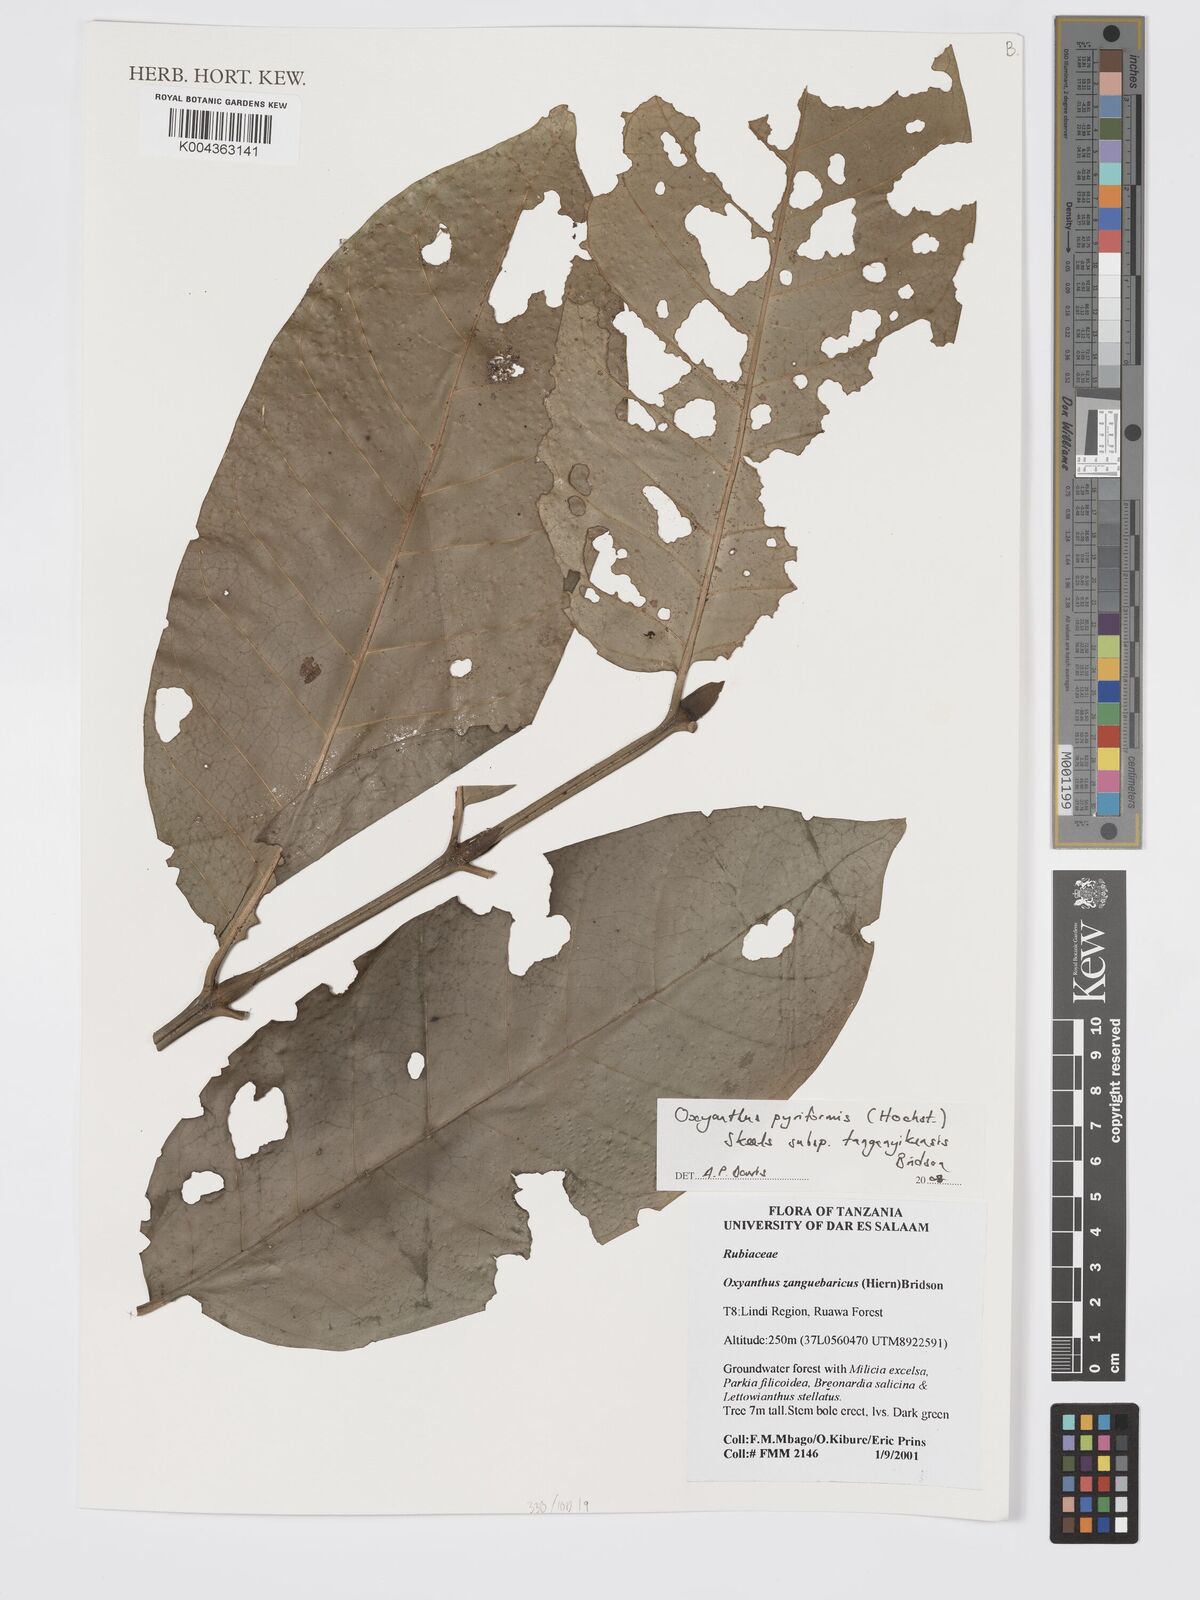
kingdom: Plantae
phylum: Tracheophyta
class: Magnoliopsida
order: Gentianales
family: Rubiaceae
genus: Oxyanthus
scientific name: Oxyanthus pyriformis
